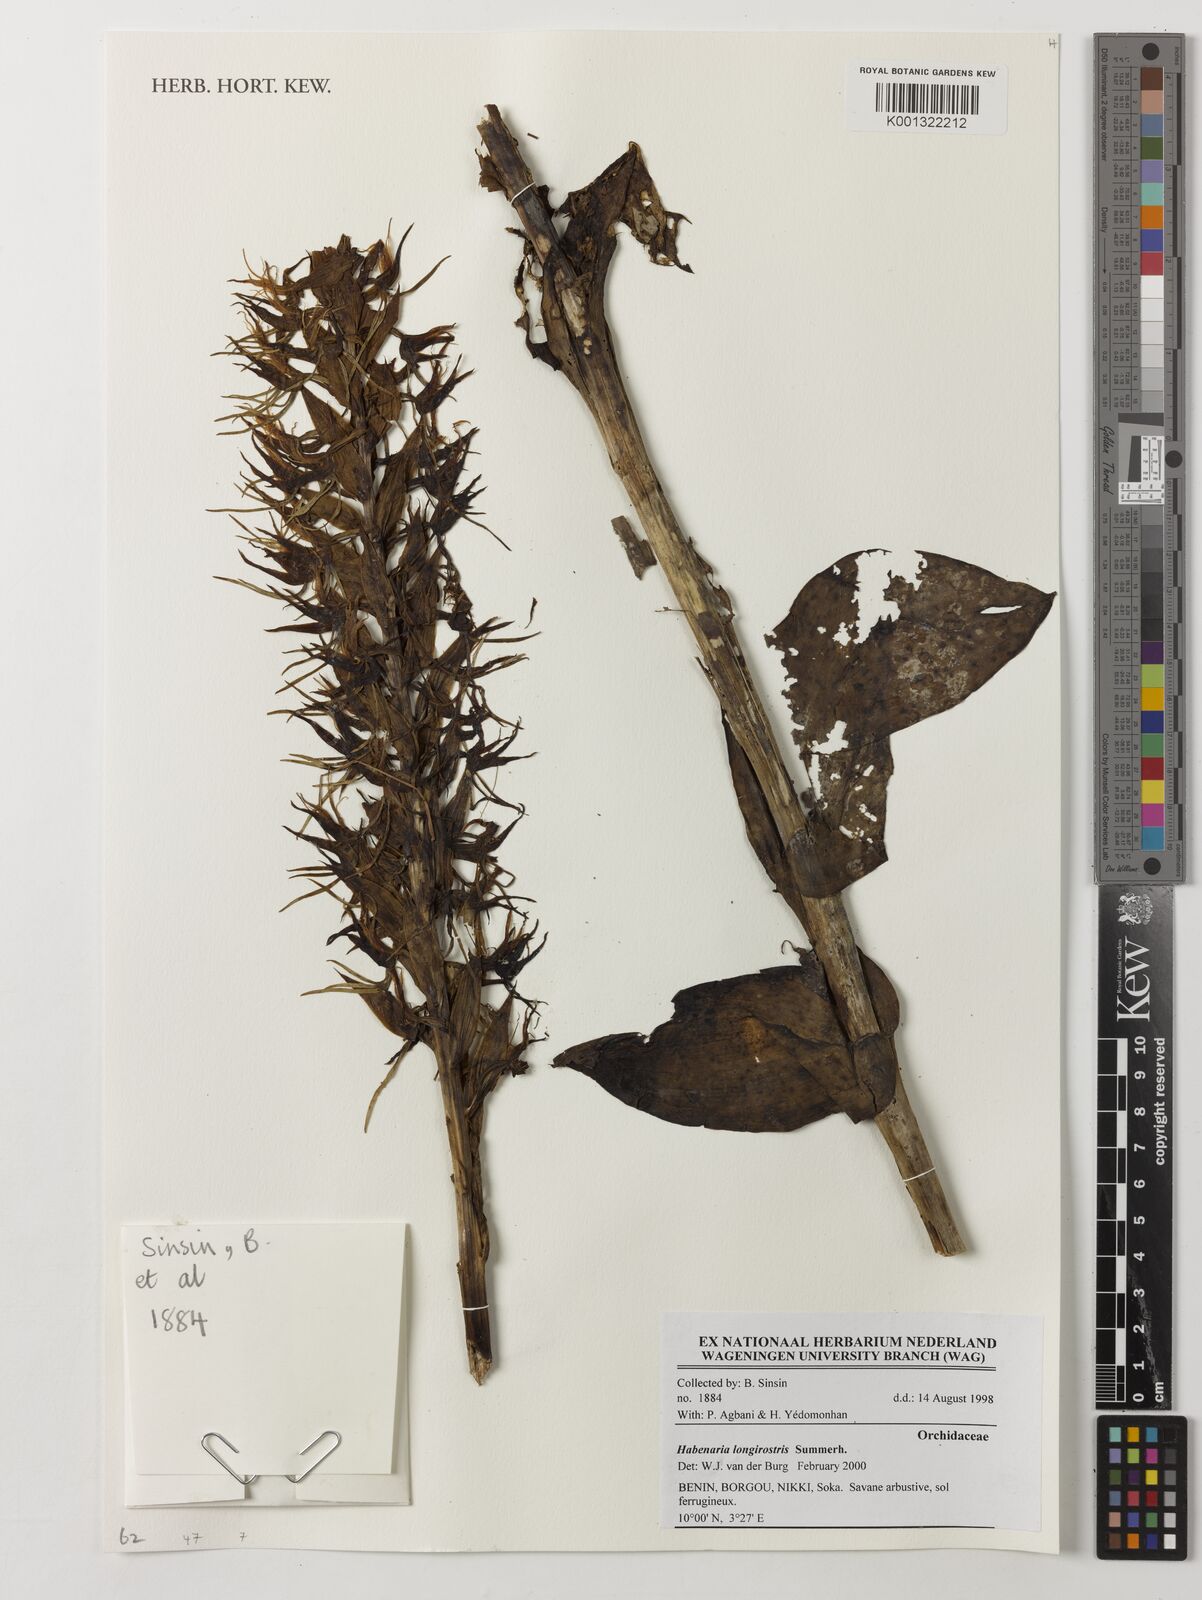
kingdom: Plantae
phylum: Tracheophyta
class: Liliopsida
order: Asparagales
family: Orchidaceae
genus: Habenaria
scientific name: Habenaria longirostris
